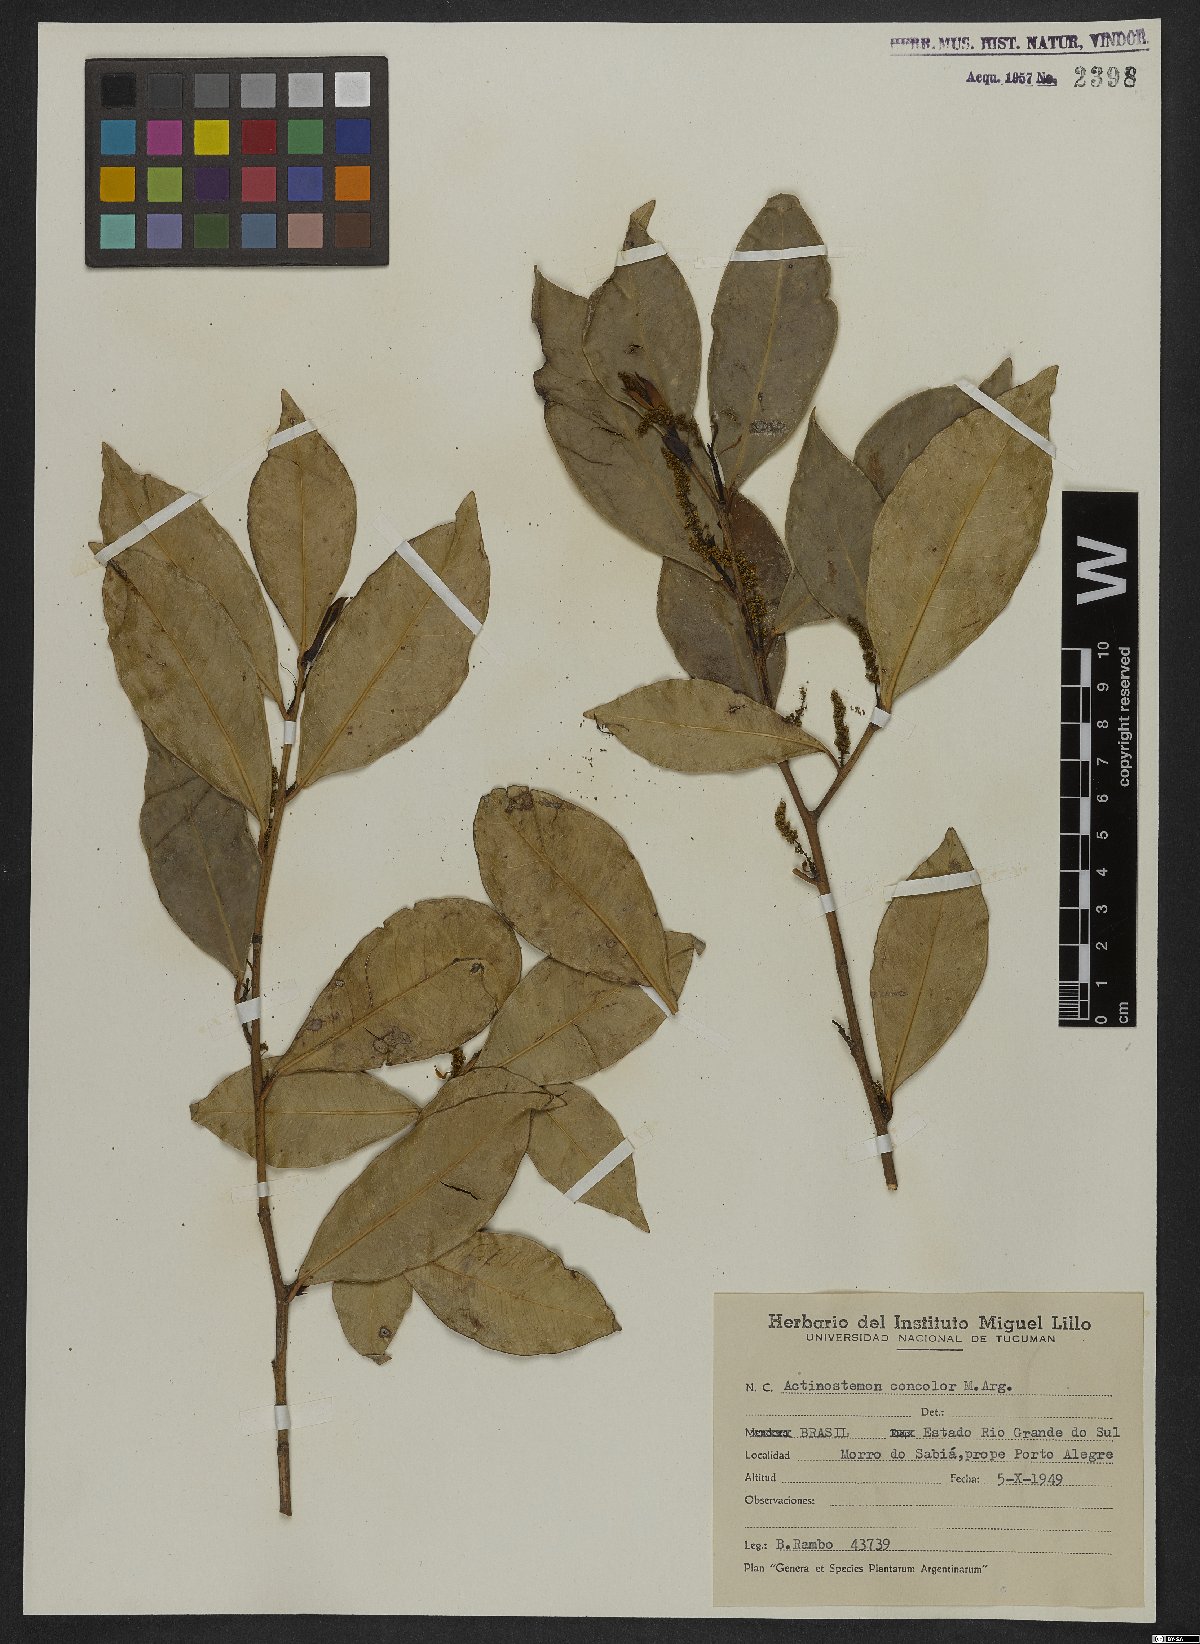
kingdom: Plantae
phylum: Tracheophyta
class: Magnoliopsida
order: Malpighiales
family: Euphorbiaceae
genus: Actinostemon
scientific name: Actinostemon concolor
